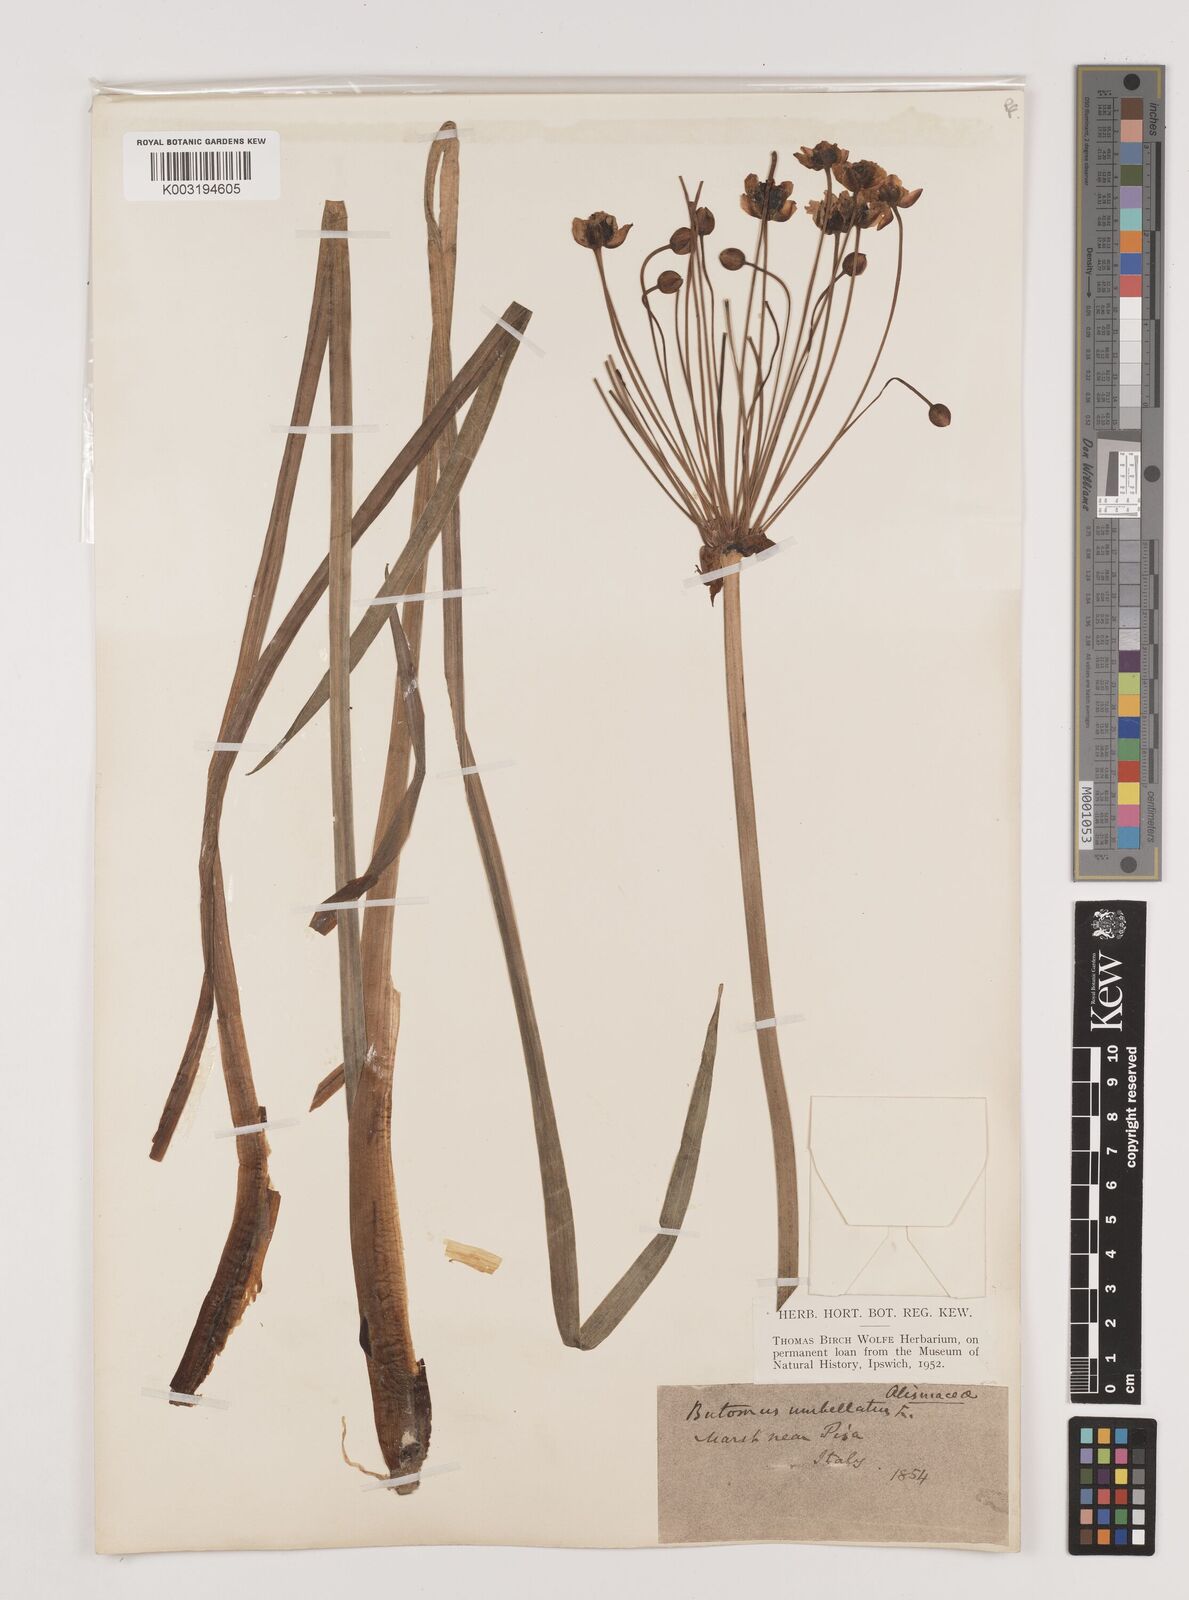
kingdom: Plantae
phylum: Tracheophyta
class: Liliopsida
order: Alismatales
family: Butomaceae
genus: Butomus
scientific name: Butomus umbellatus
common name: Flowering-rush
